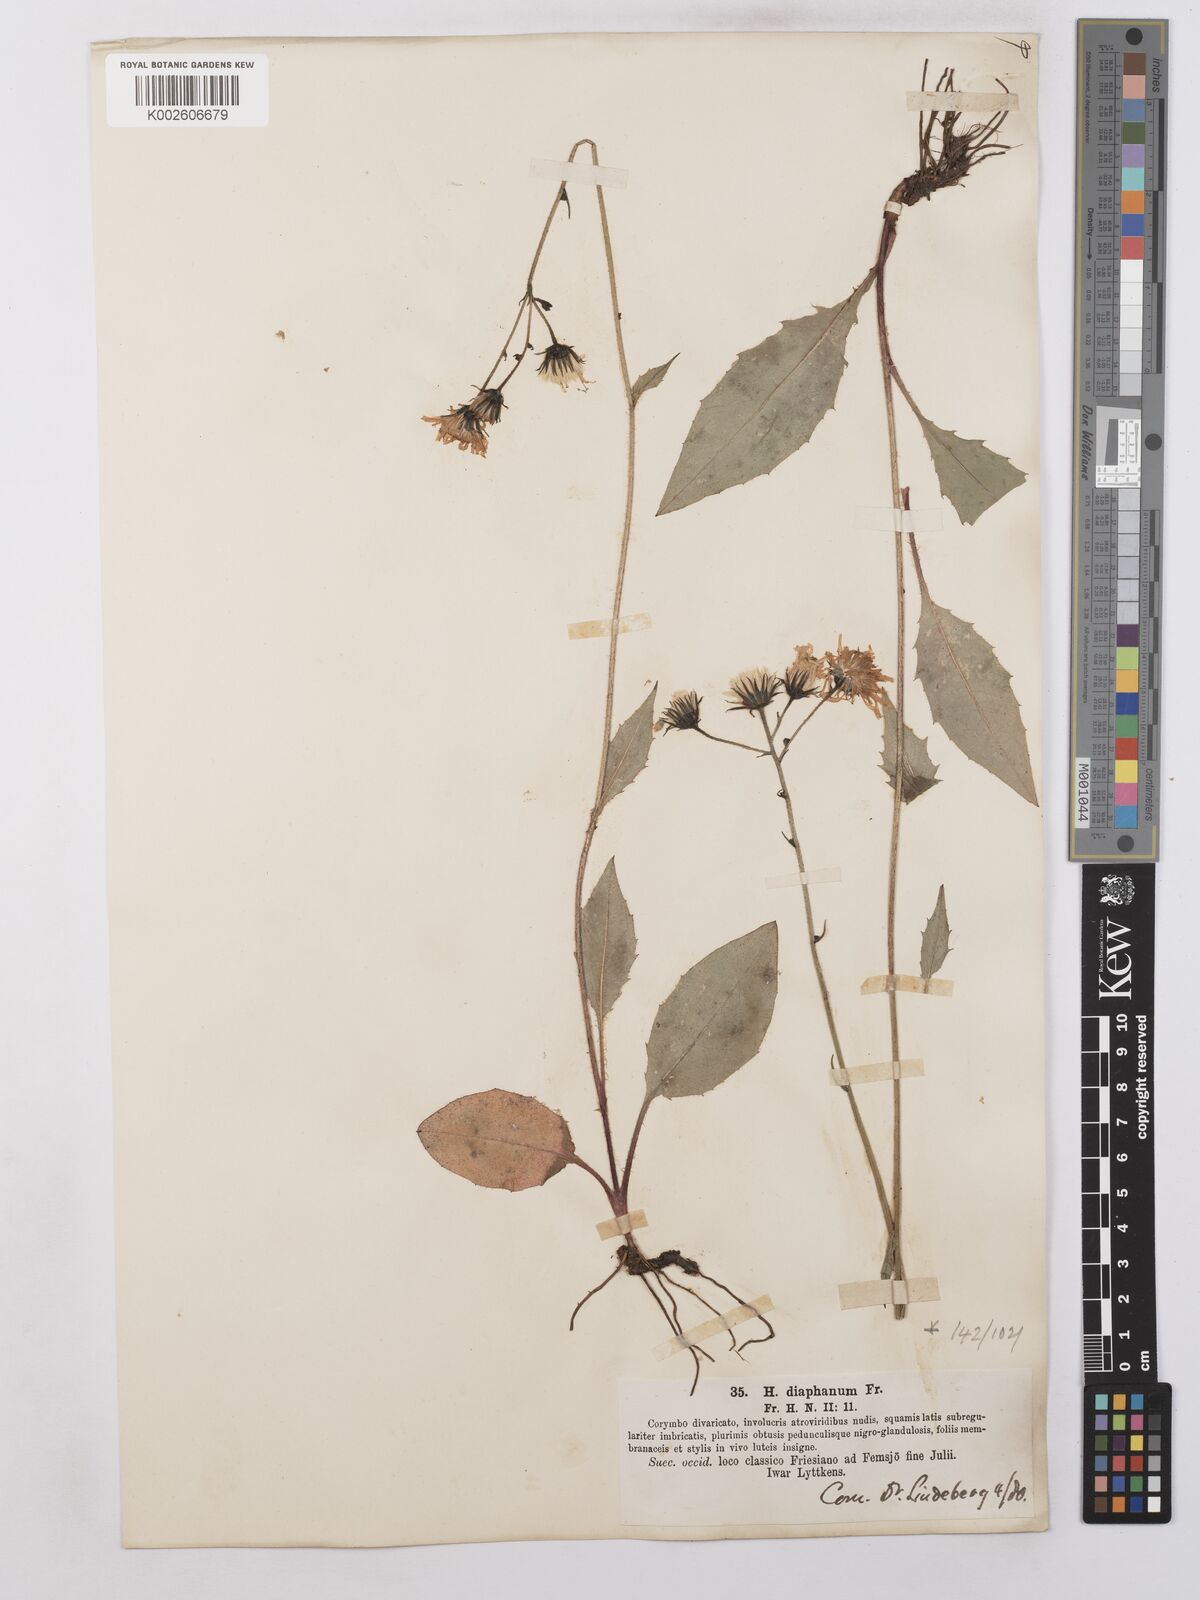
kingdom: Plantae
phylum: Tracheophyta
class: Magnoliopsida
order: Asterales
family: Asteraceae
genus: Hieracium
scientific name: Hieracium lachenalii
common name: Common hawkweed
